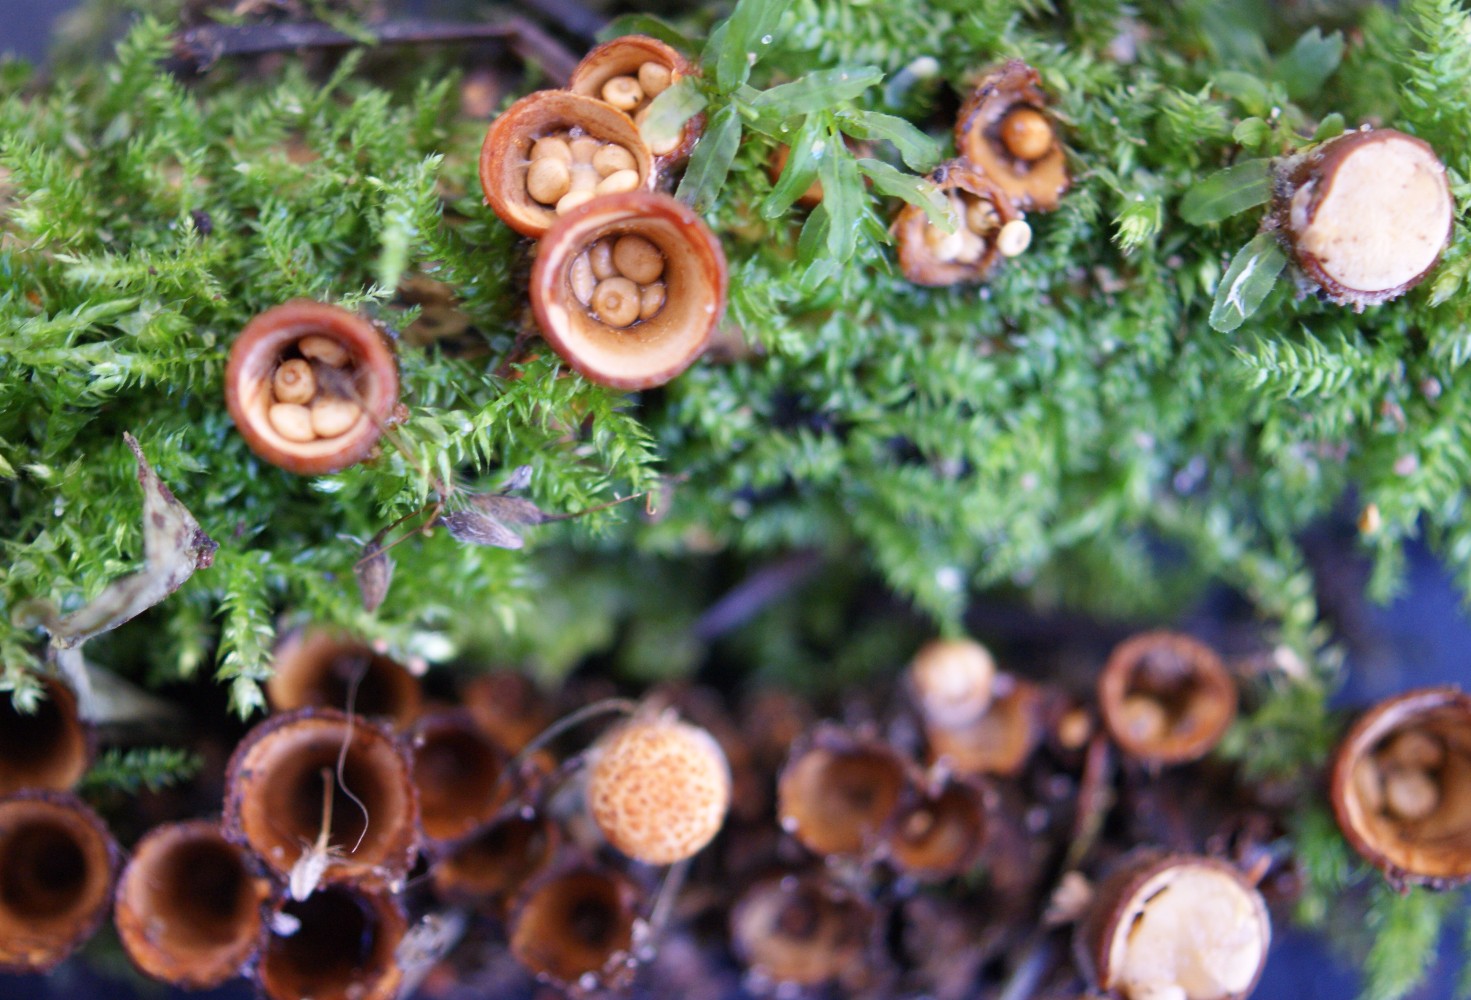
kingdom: Fungi
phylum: Basidiomycota
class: Agaricomycetes
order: Agaricales
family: Nidulariaceae
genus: Crucibulum
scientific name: Crucibulum crucibuliforme
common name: krukkesvamp
